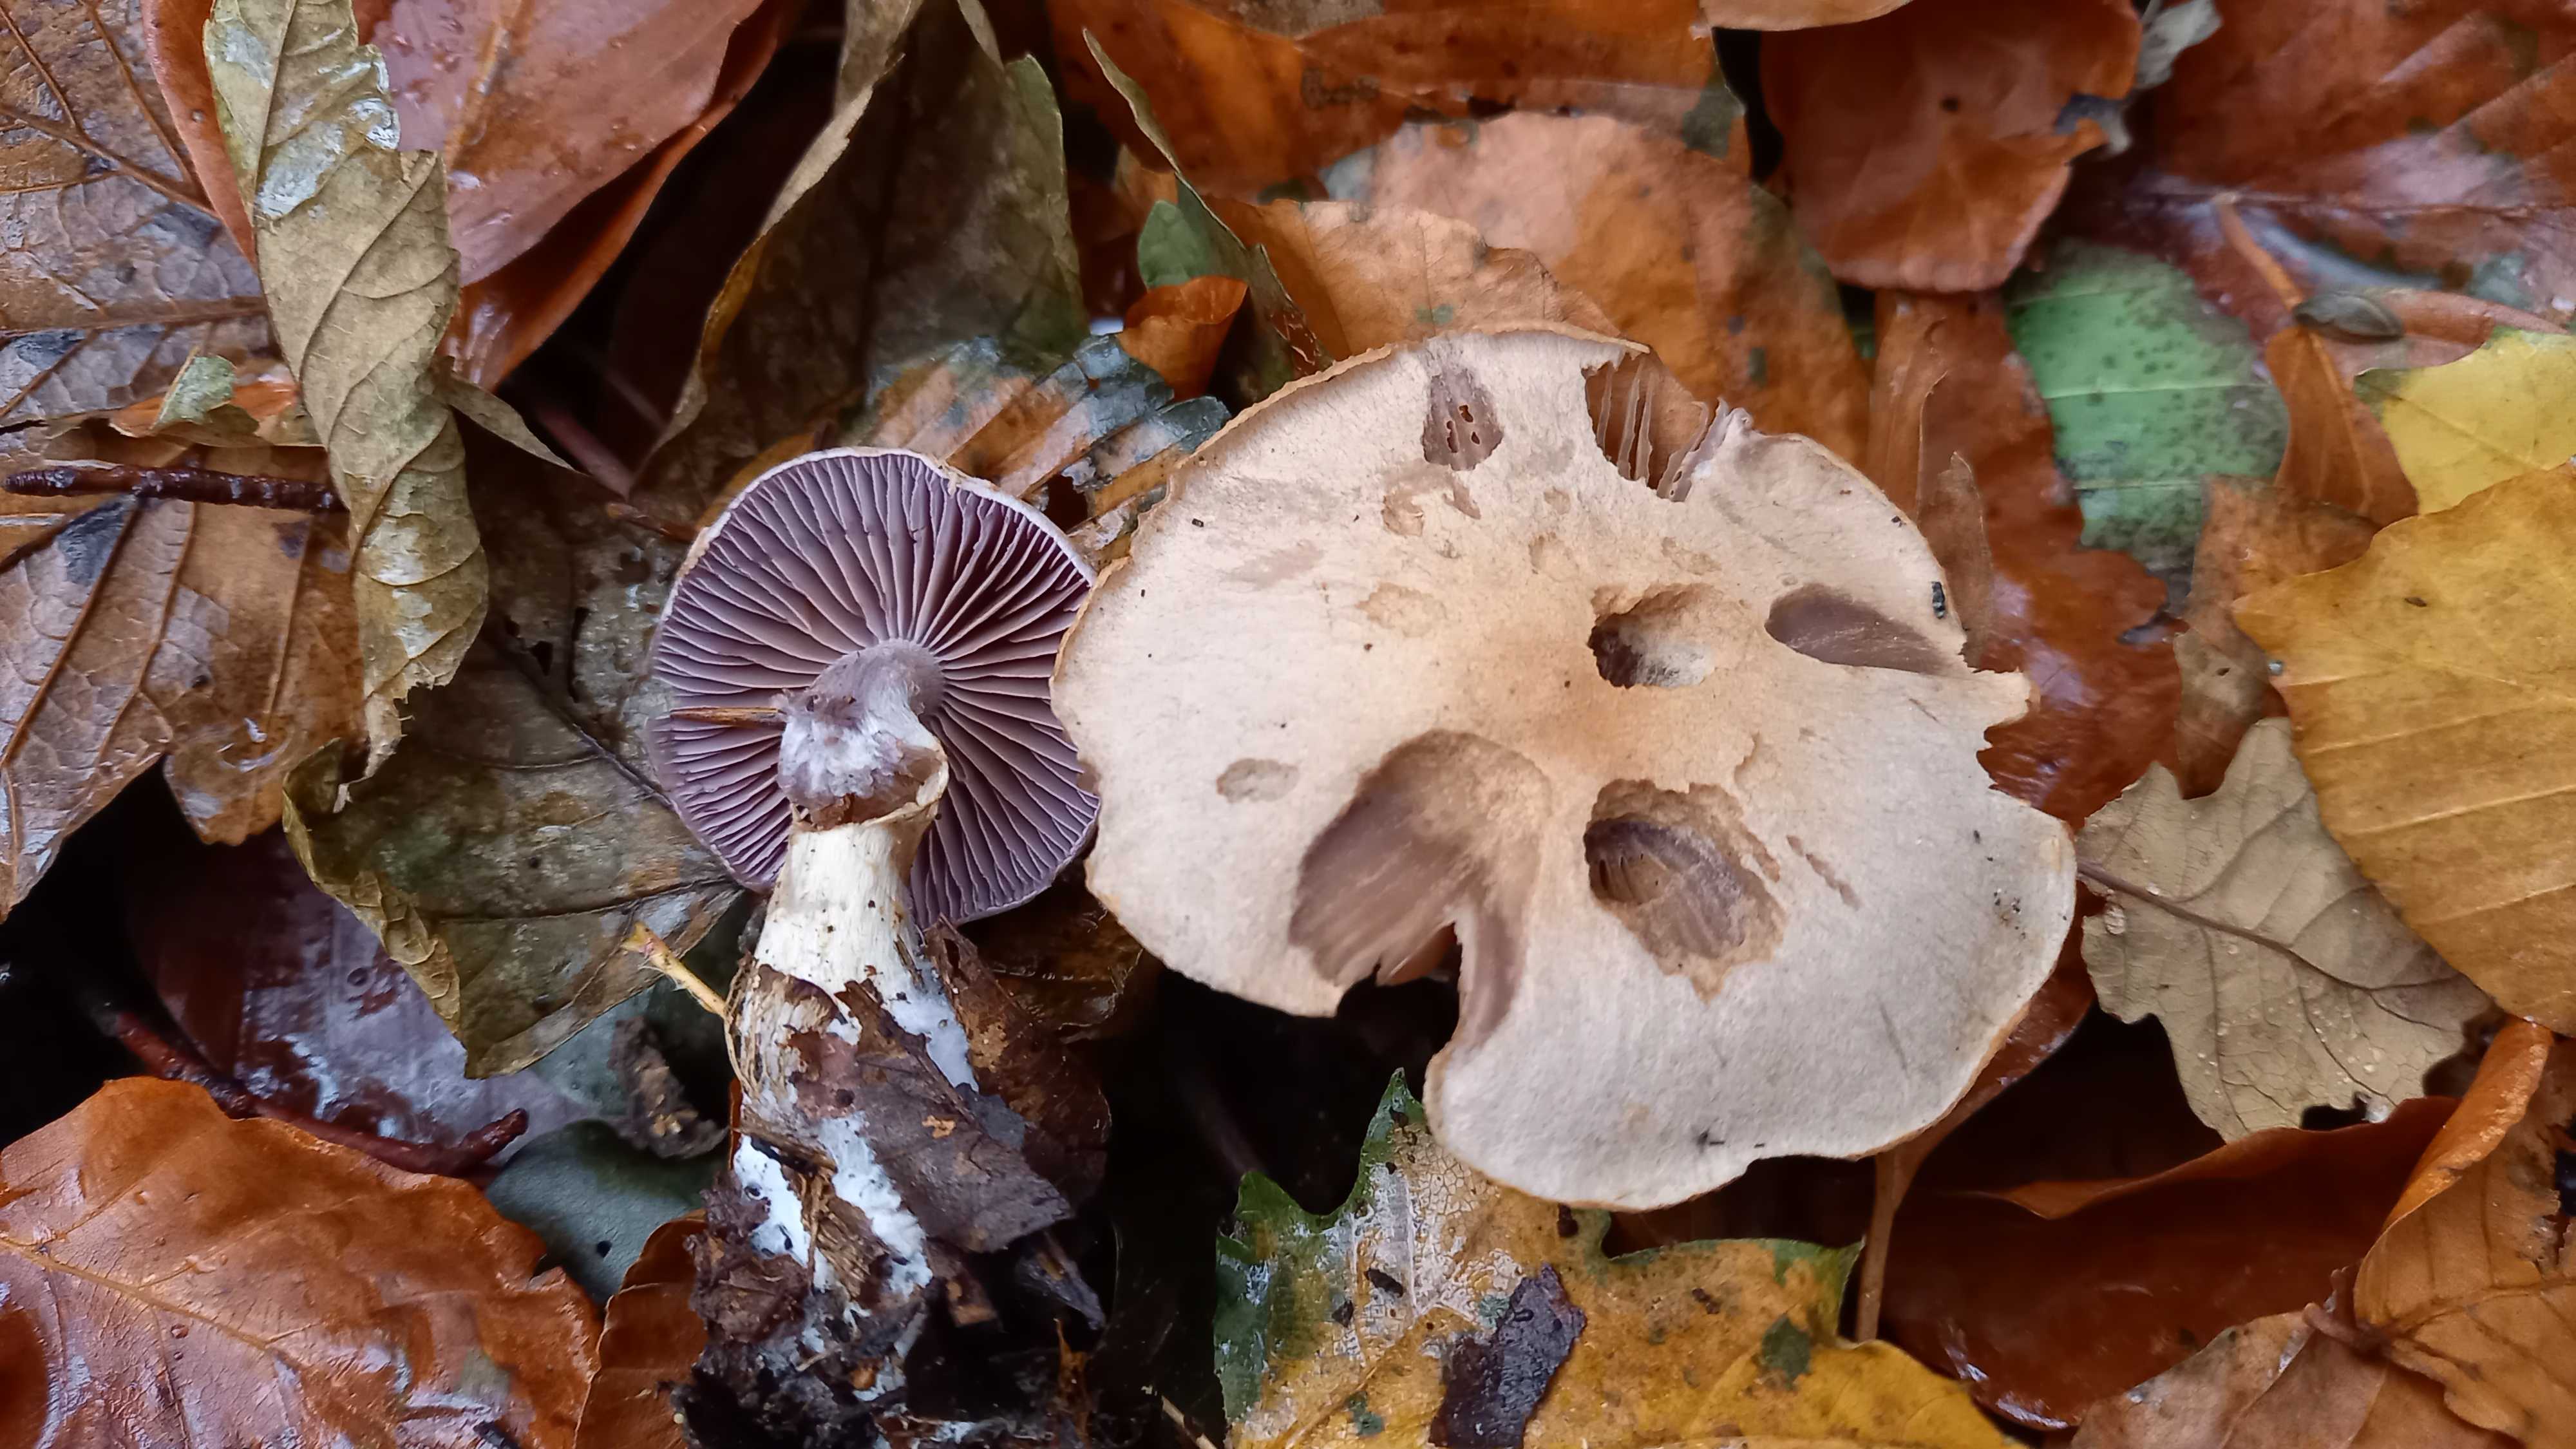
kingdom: Fungi
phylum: Basidiomycota
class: Agaricomycetes
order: Agaricales
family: Cortinariaceae
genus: Cortinarius
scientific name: Cortinarius
